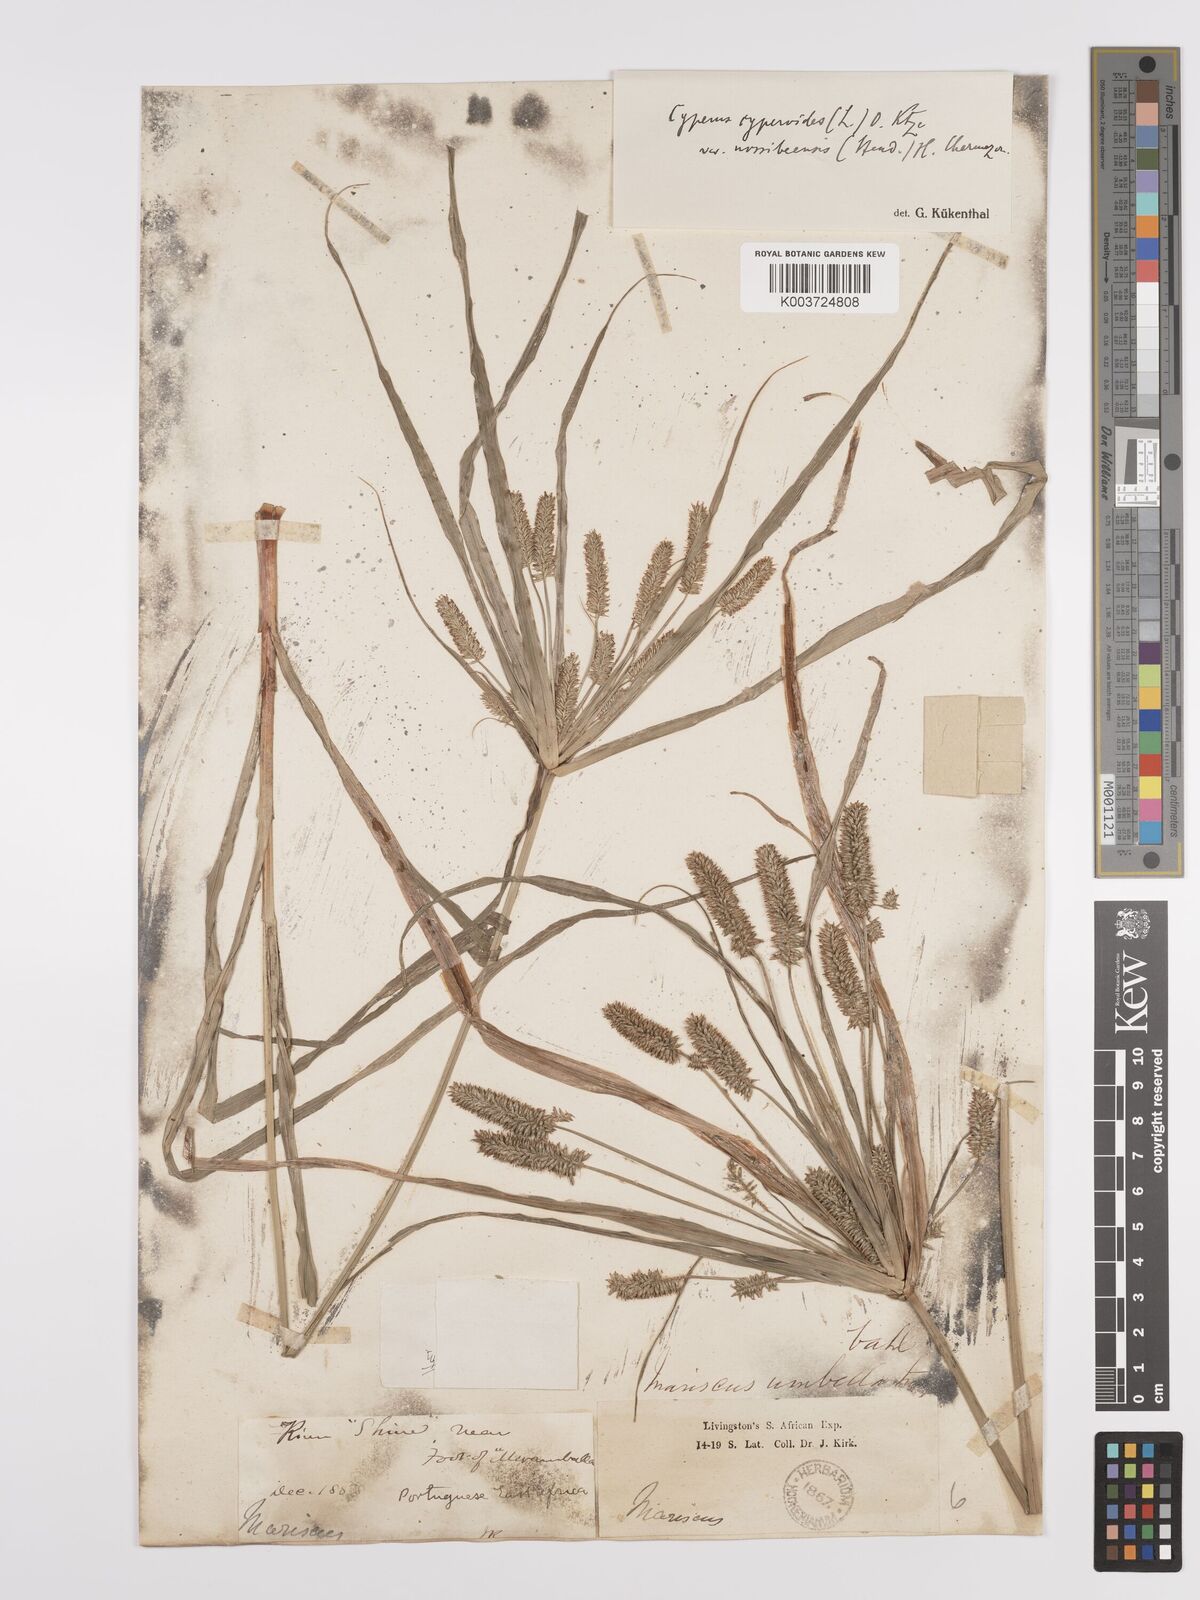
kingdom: Plantae
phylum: Tracheophyta
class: Liliopsida
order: Poales
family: Cyperaceae
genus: Cyperus
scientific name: Cyperus cyperoides
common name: Pacific island flat sedge
